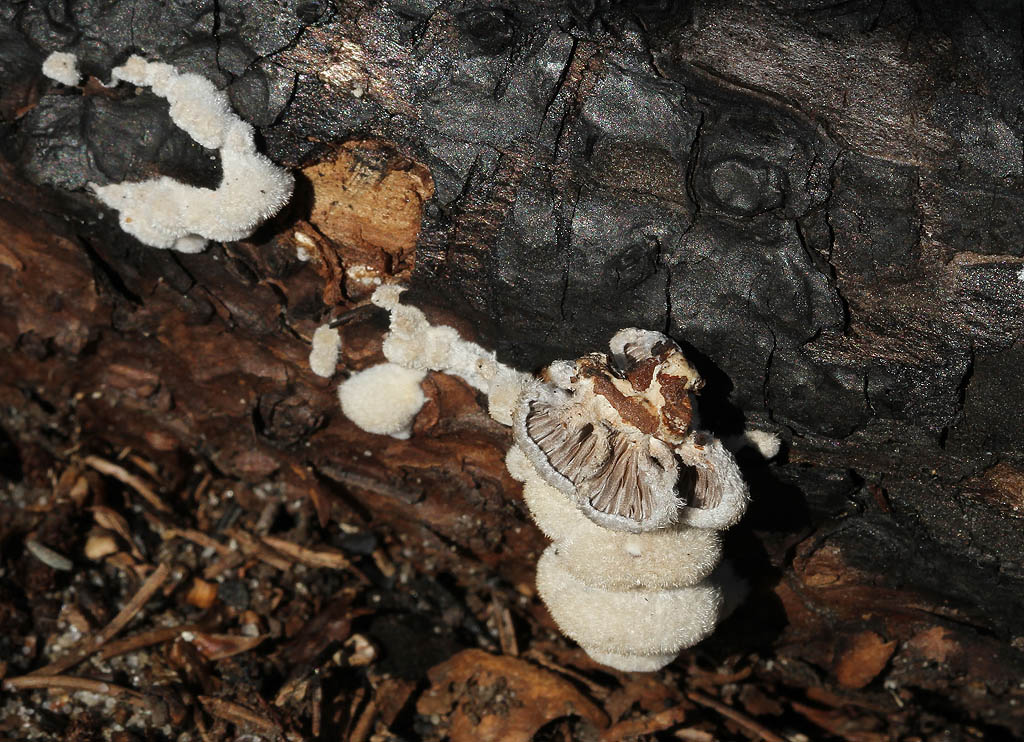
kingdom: Fungi
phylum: Basidiomycota
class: Agaricomycetes
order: Agaricales
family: Schizophyllaceae
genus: Schizophyllum
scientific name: Schizophyllum commune
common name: kløvblad
